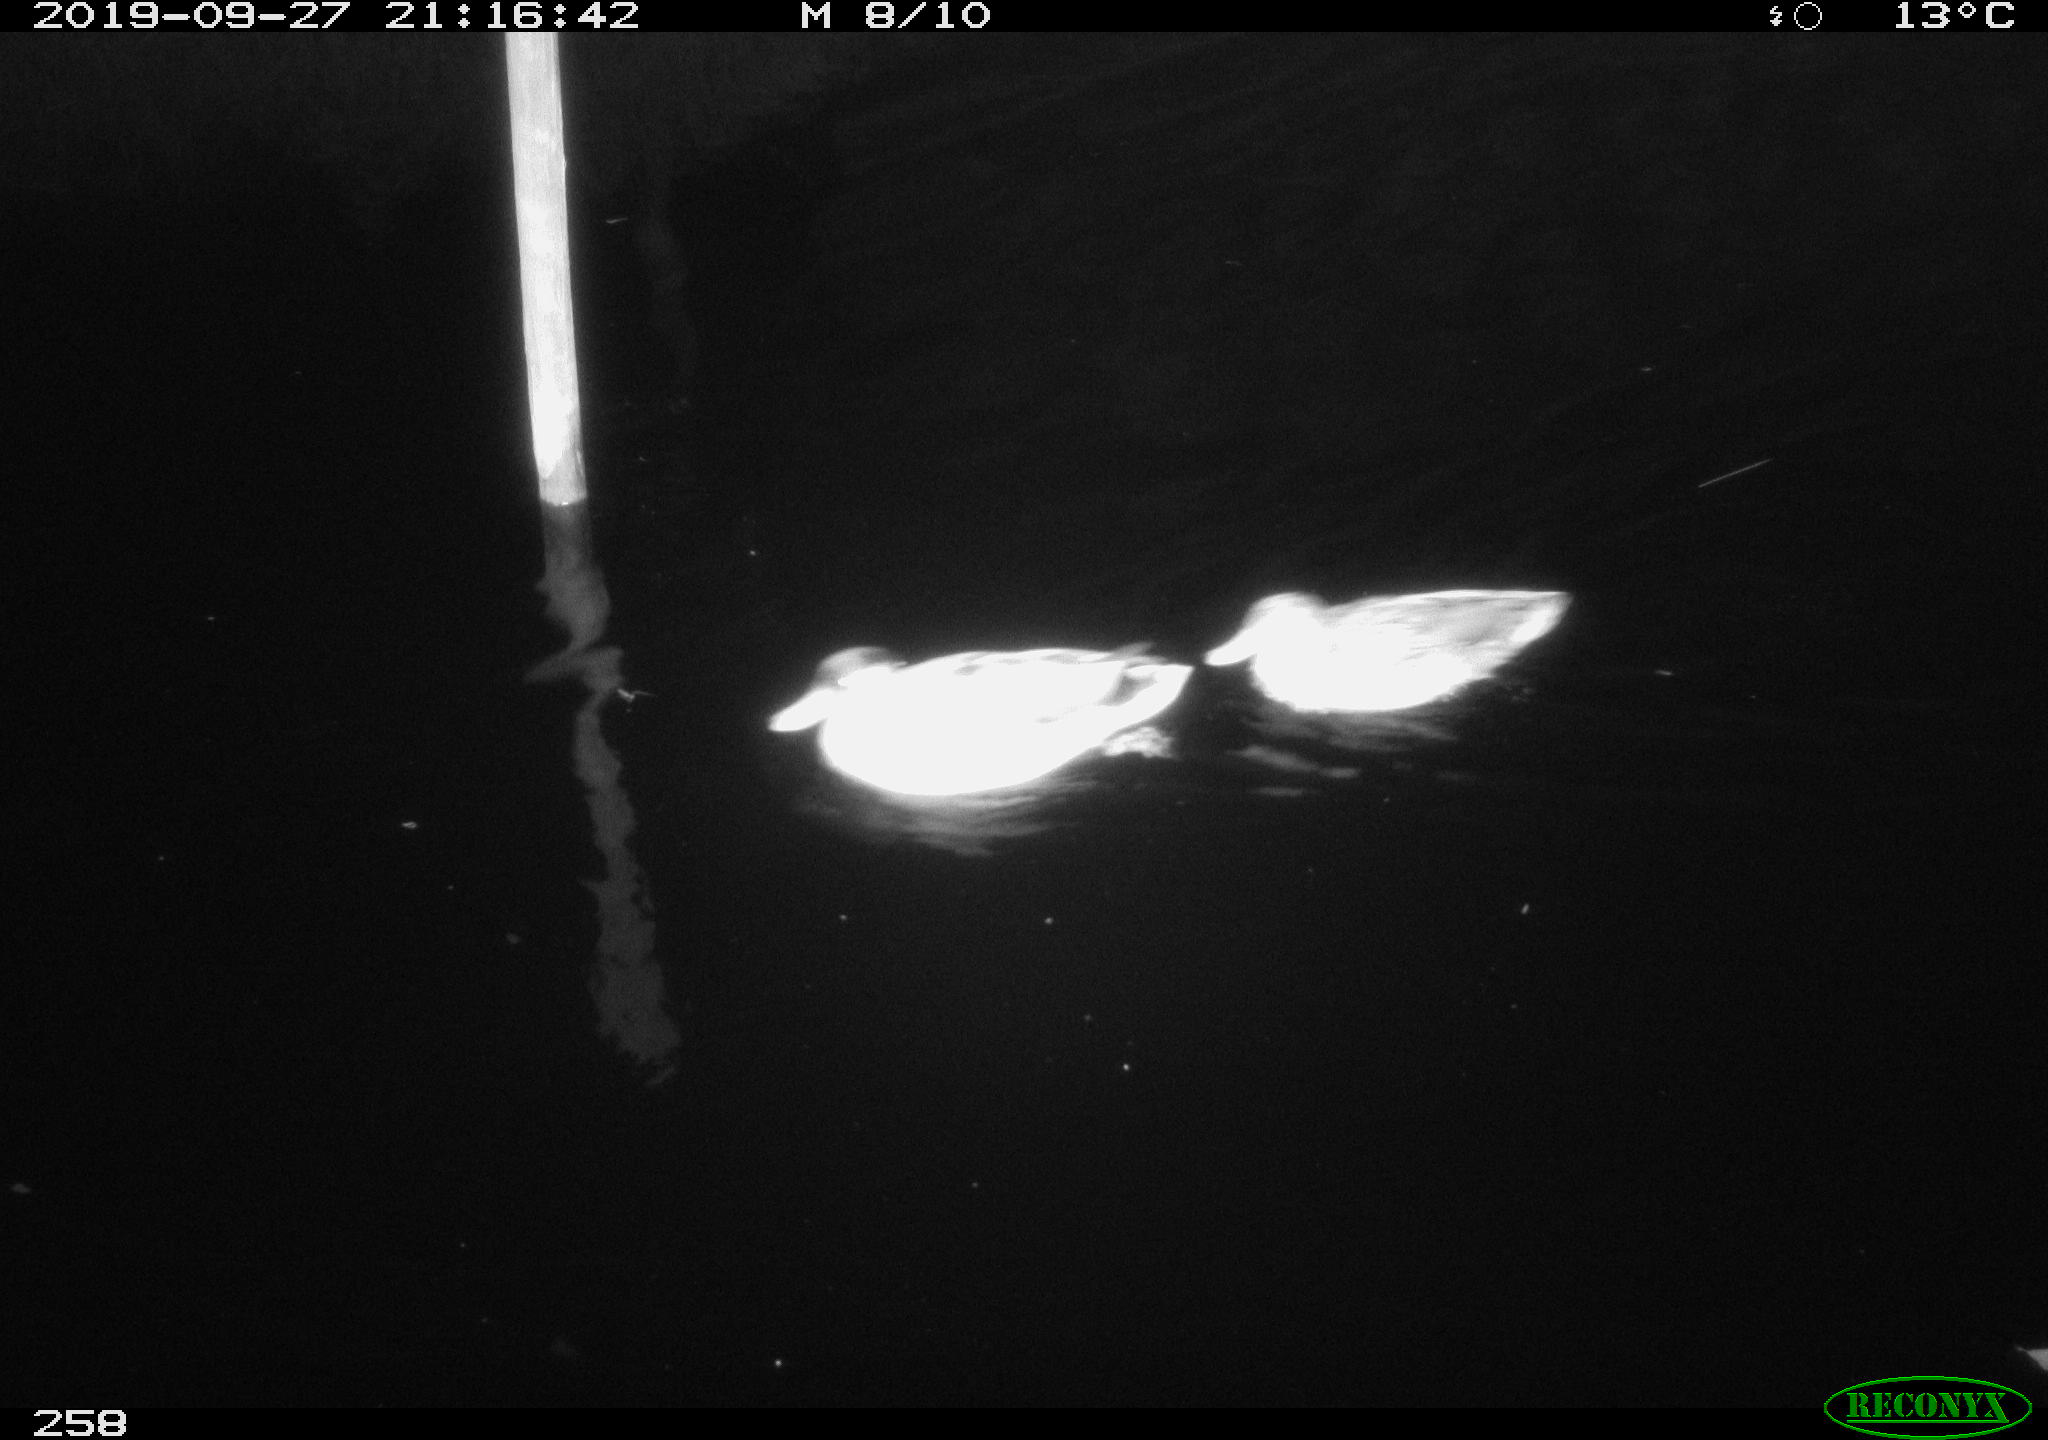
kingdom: Animalia
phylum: Chordata
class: Aves
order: Anseriformes
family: Anatidae
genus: Anas
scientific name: Anas platyrhynchos
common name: Mallard
